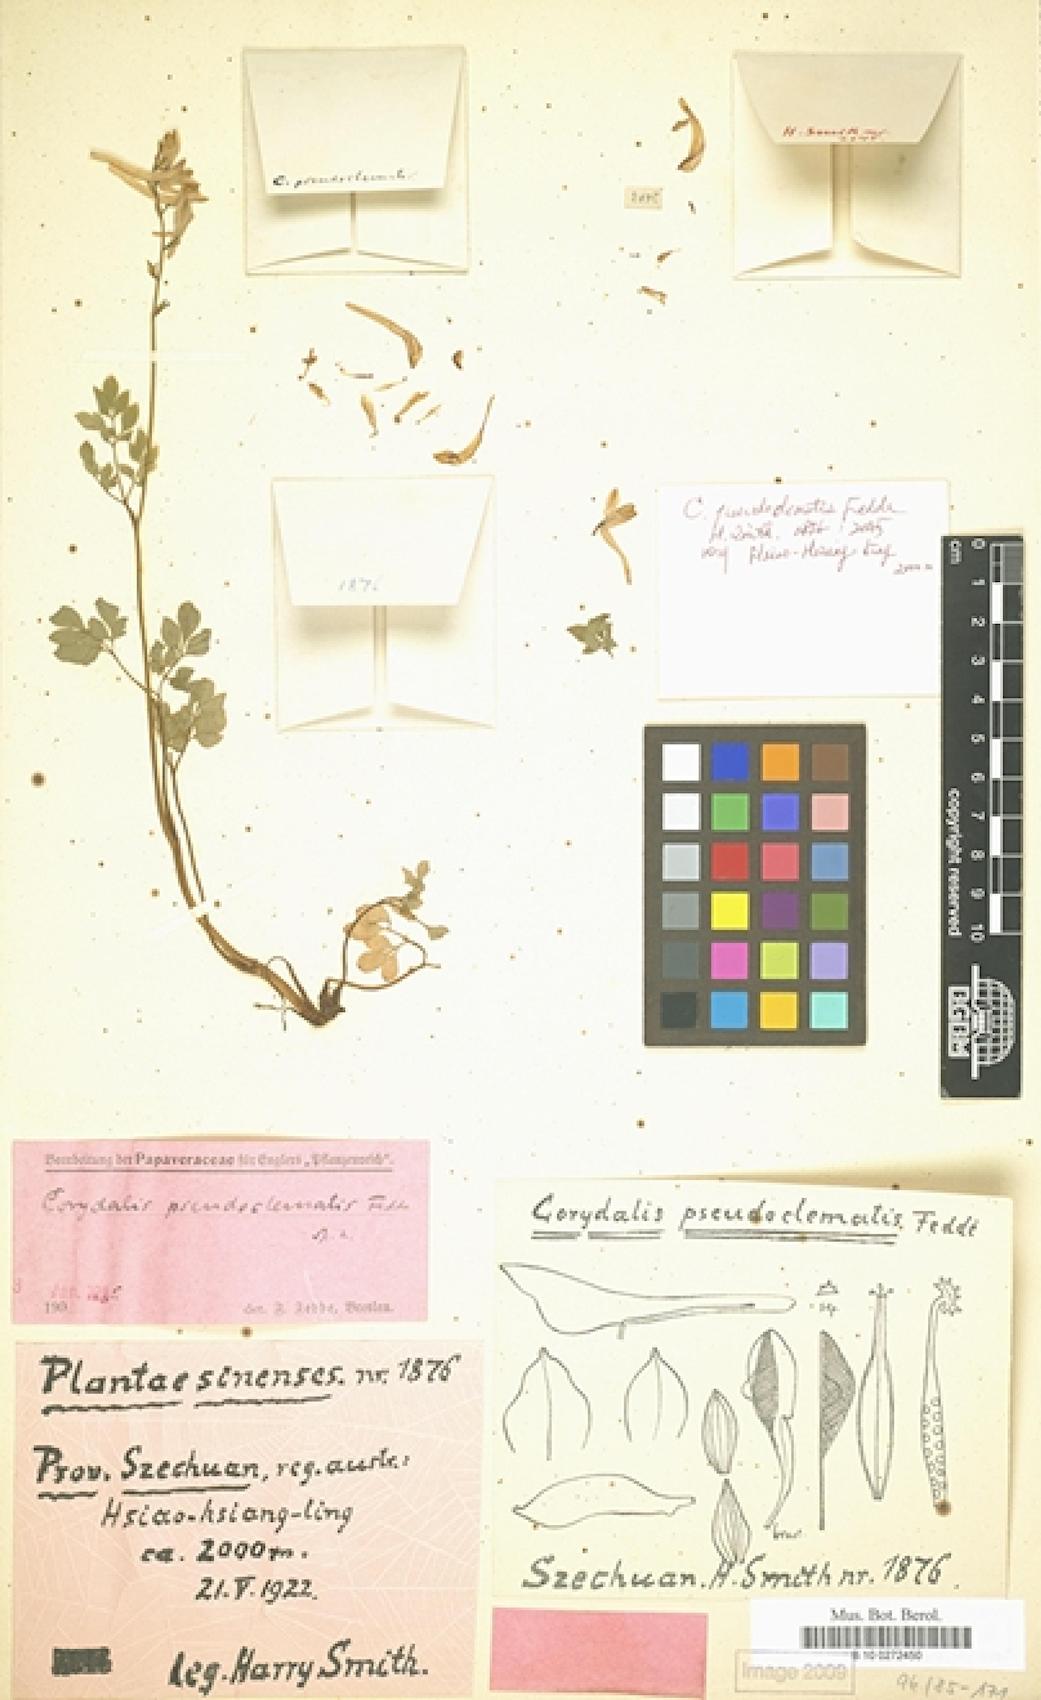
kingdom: Plantae
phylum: Tracheophyta
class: Magnoliopsida
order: Ranunculales
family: Papaveraceae
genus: Corydalis
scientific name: Corydalis davidii
